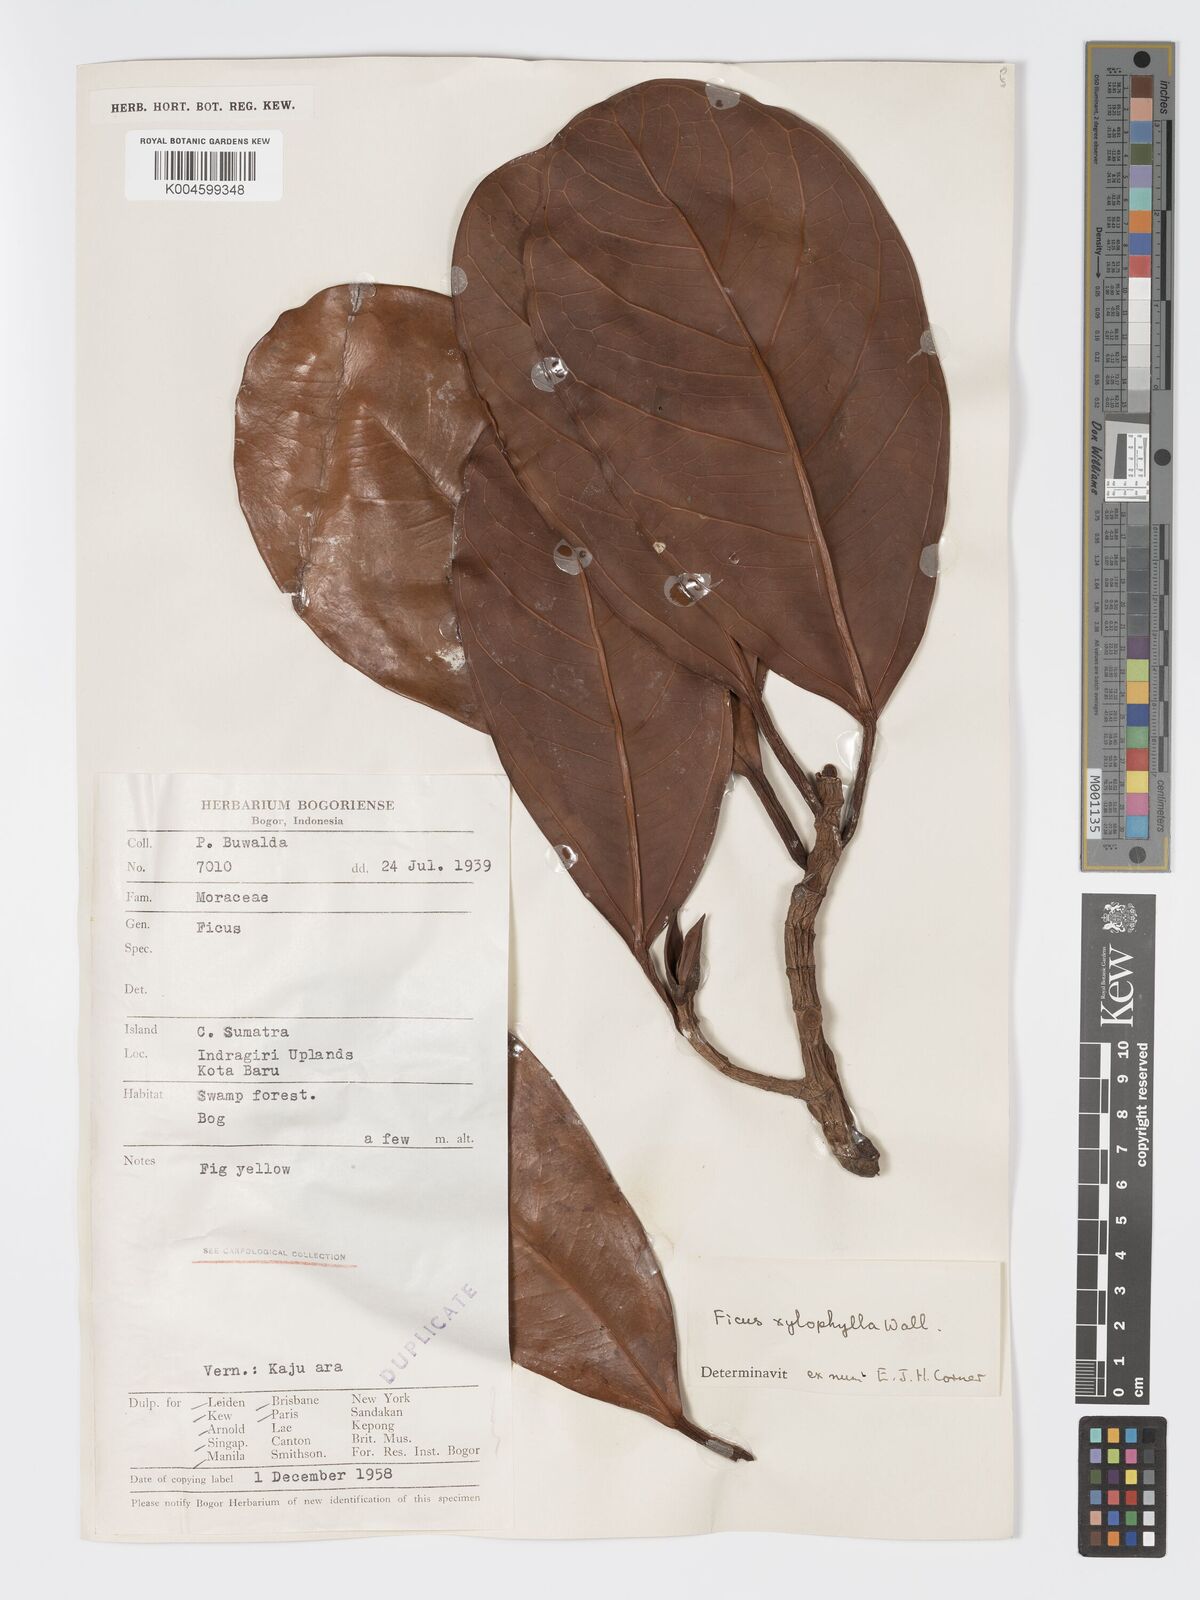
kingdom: Plantae
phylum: Tracheophyta
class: Magnoliopsida
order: Rosales
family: Moraceae
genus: Ficus
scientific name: Ficus xylophylla
